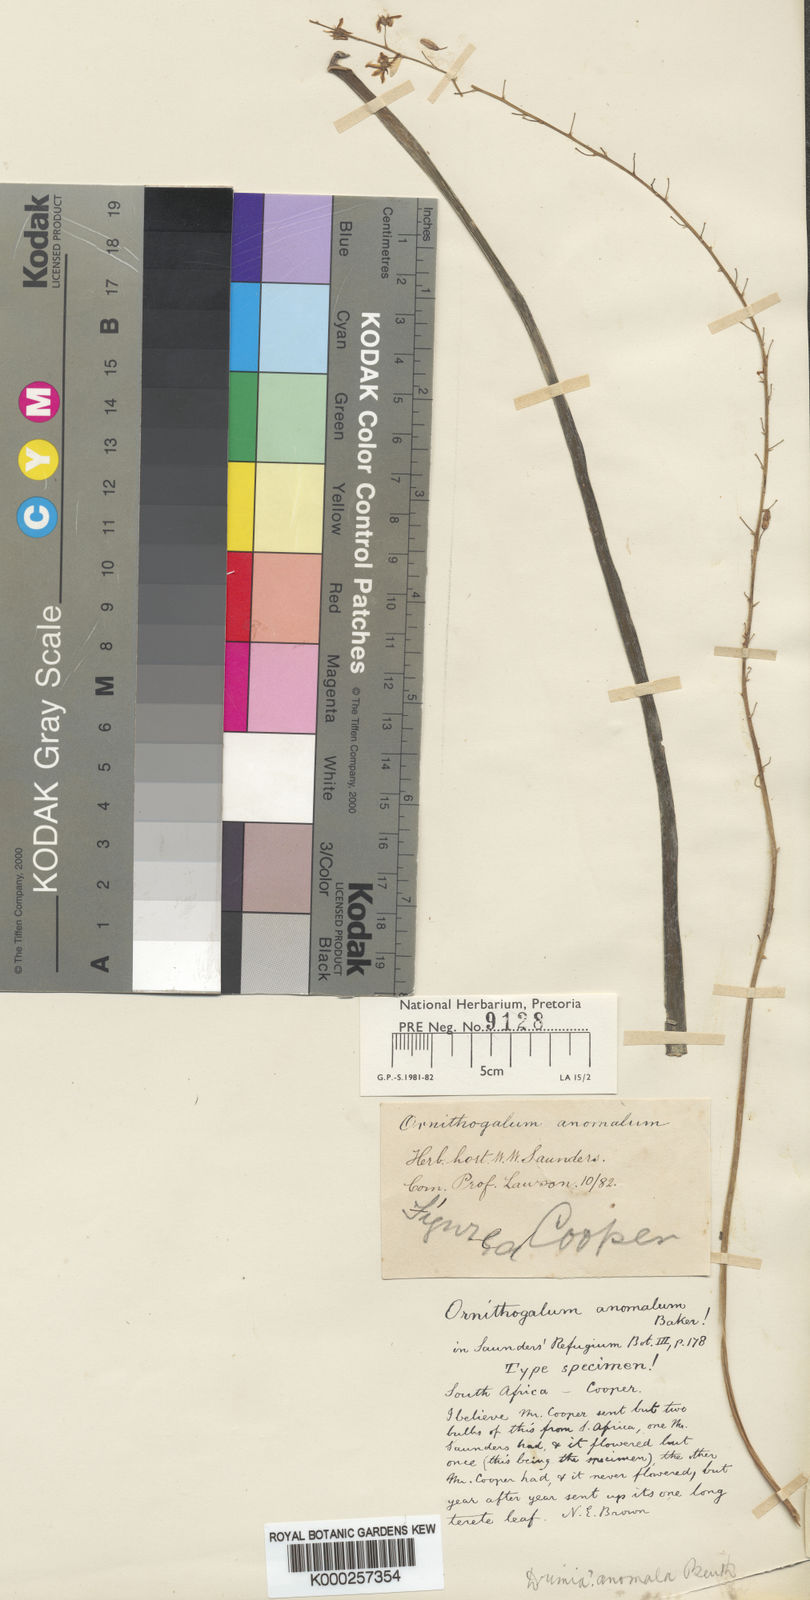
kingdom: Plantae
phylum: Tracheophyta
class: Liliopsida
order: Asparagales
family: Asparagaceae
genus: Drimia
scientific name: Drimia anomala
